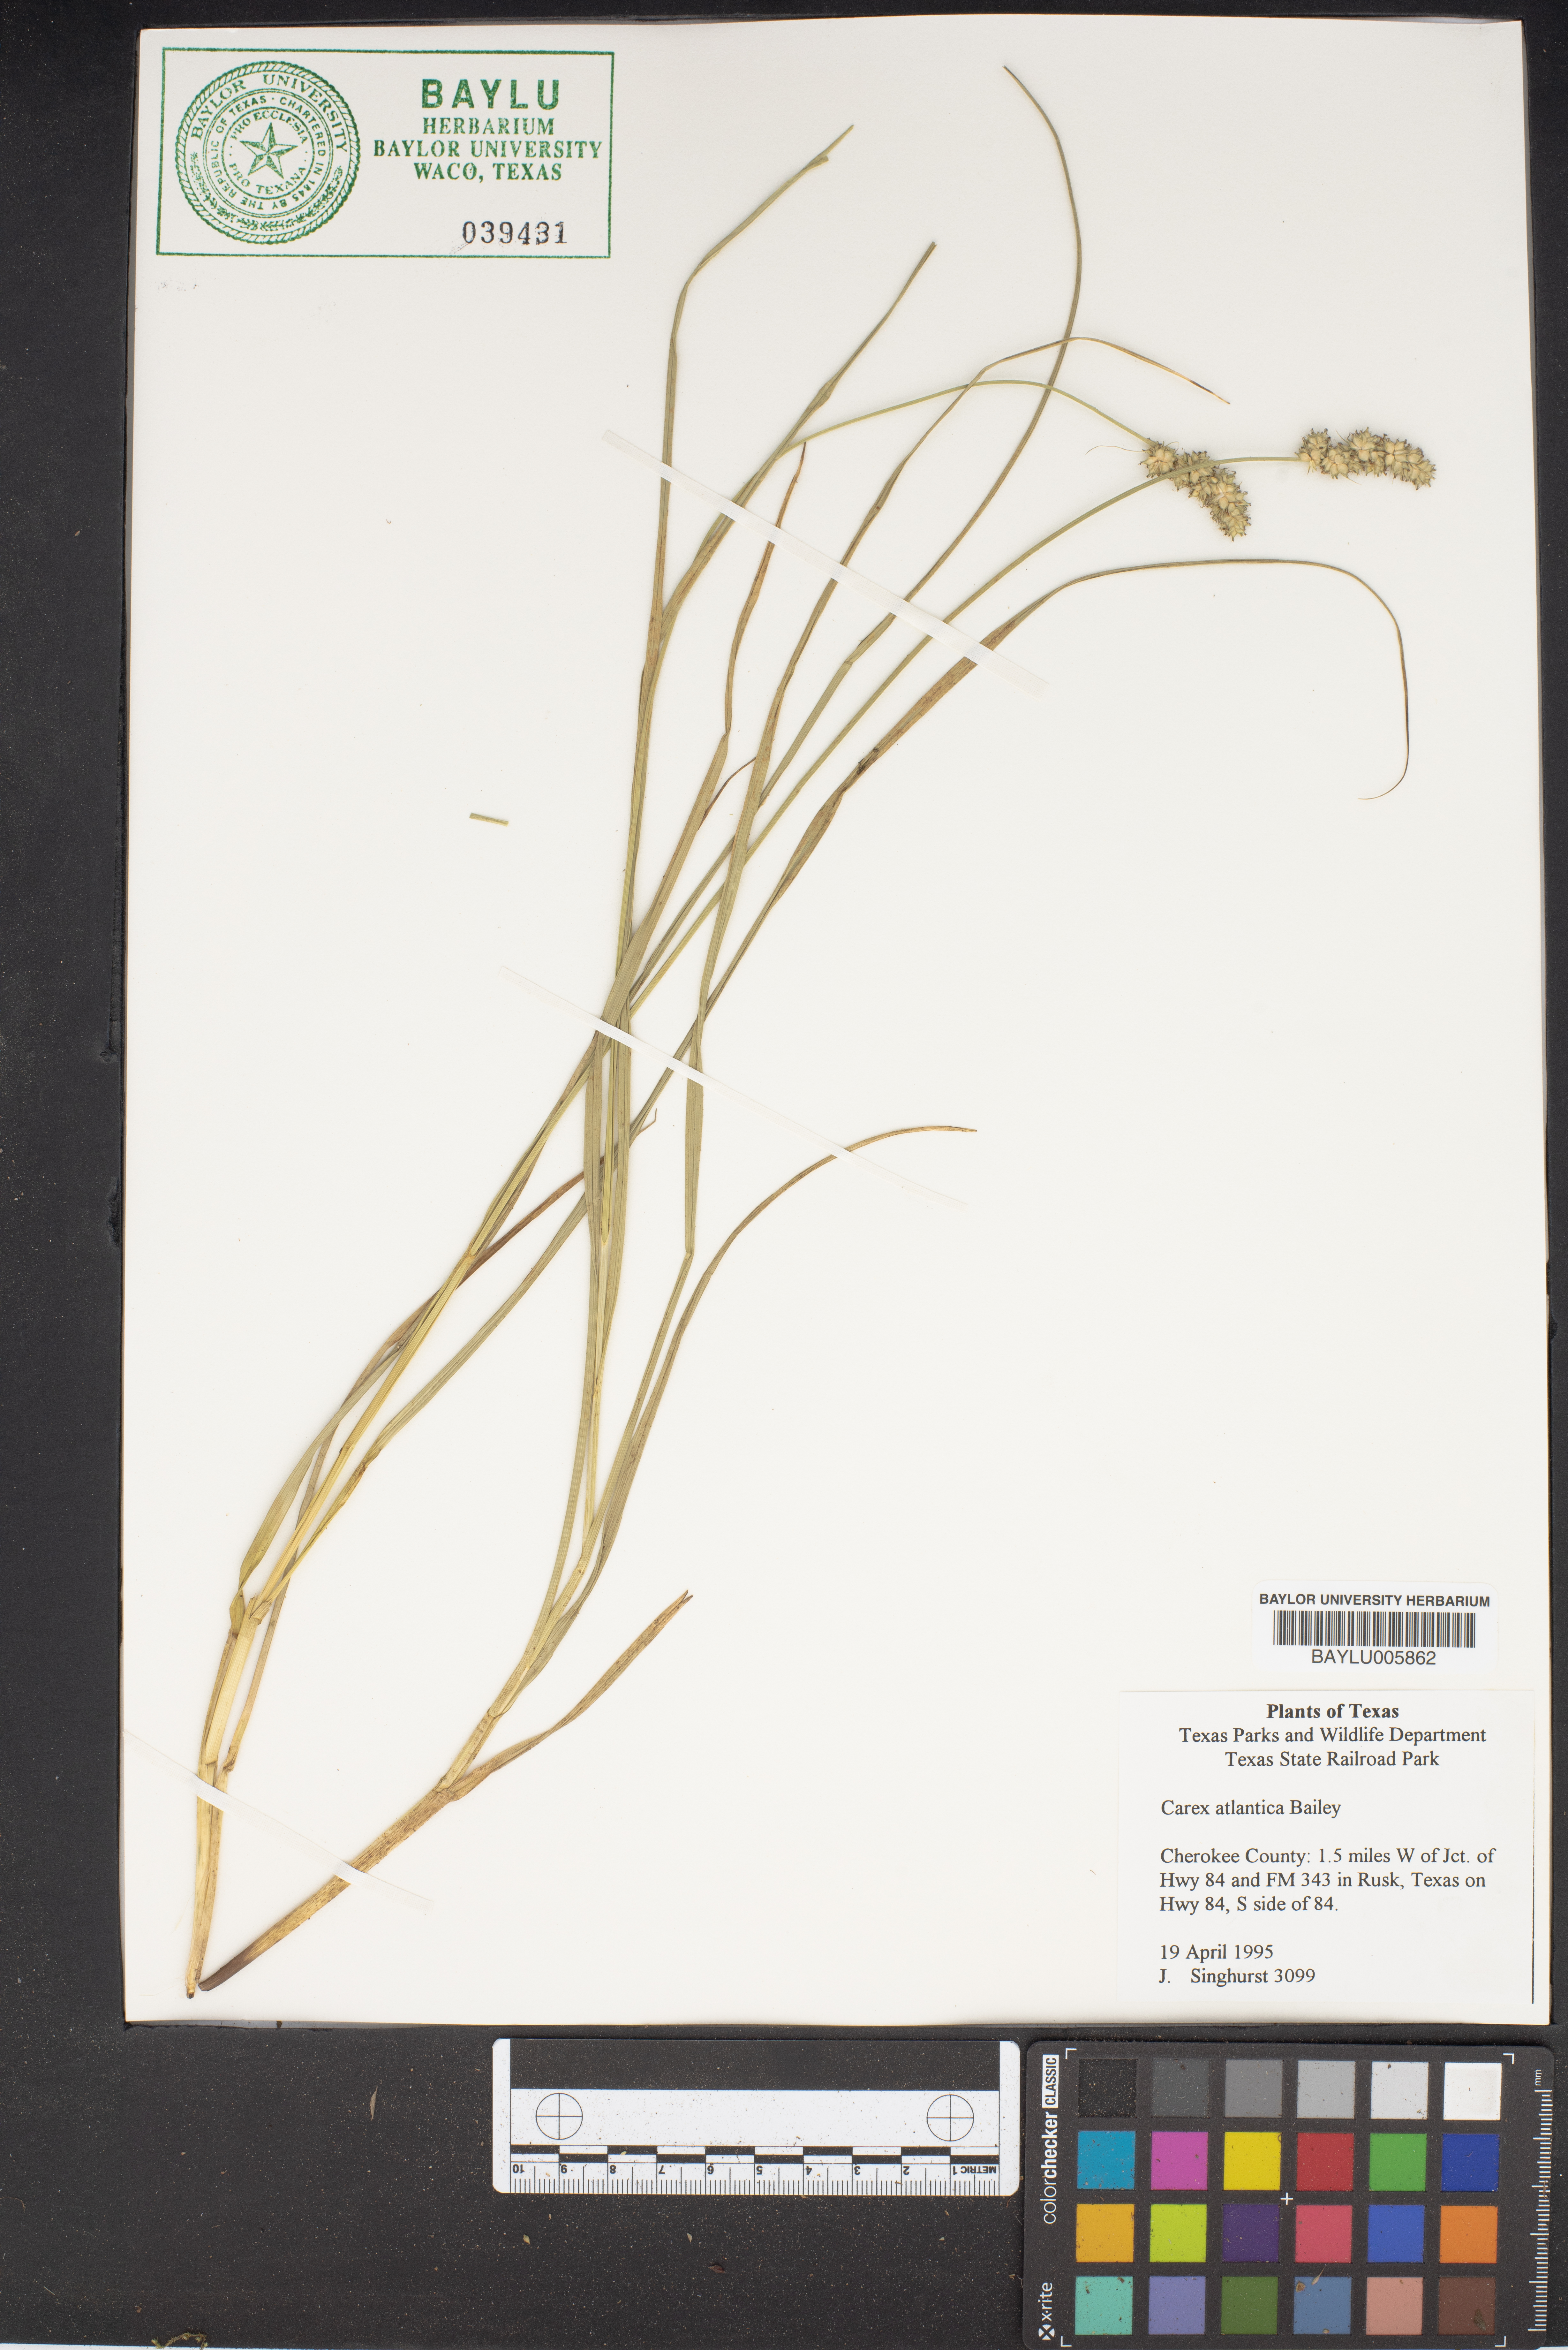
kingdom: Plantae
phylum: Tracheophyta
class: Liliopsida
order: Poales
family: Cyperaceae
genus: Carex
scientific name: Carex atlantica
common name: Atlantic sedge
